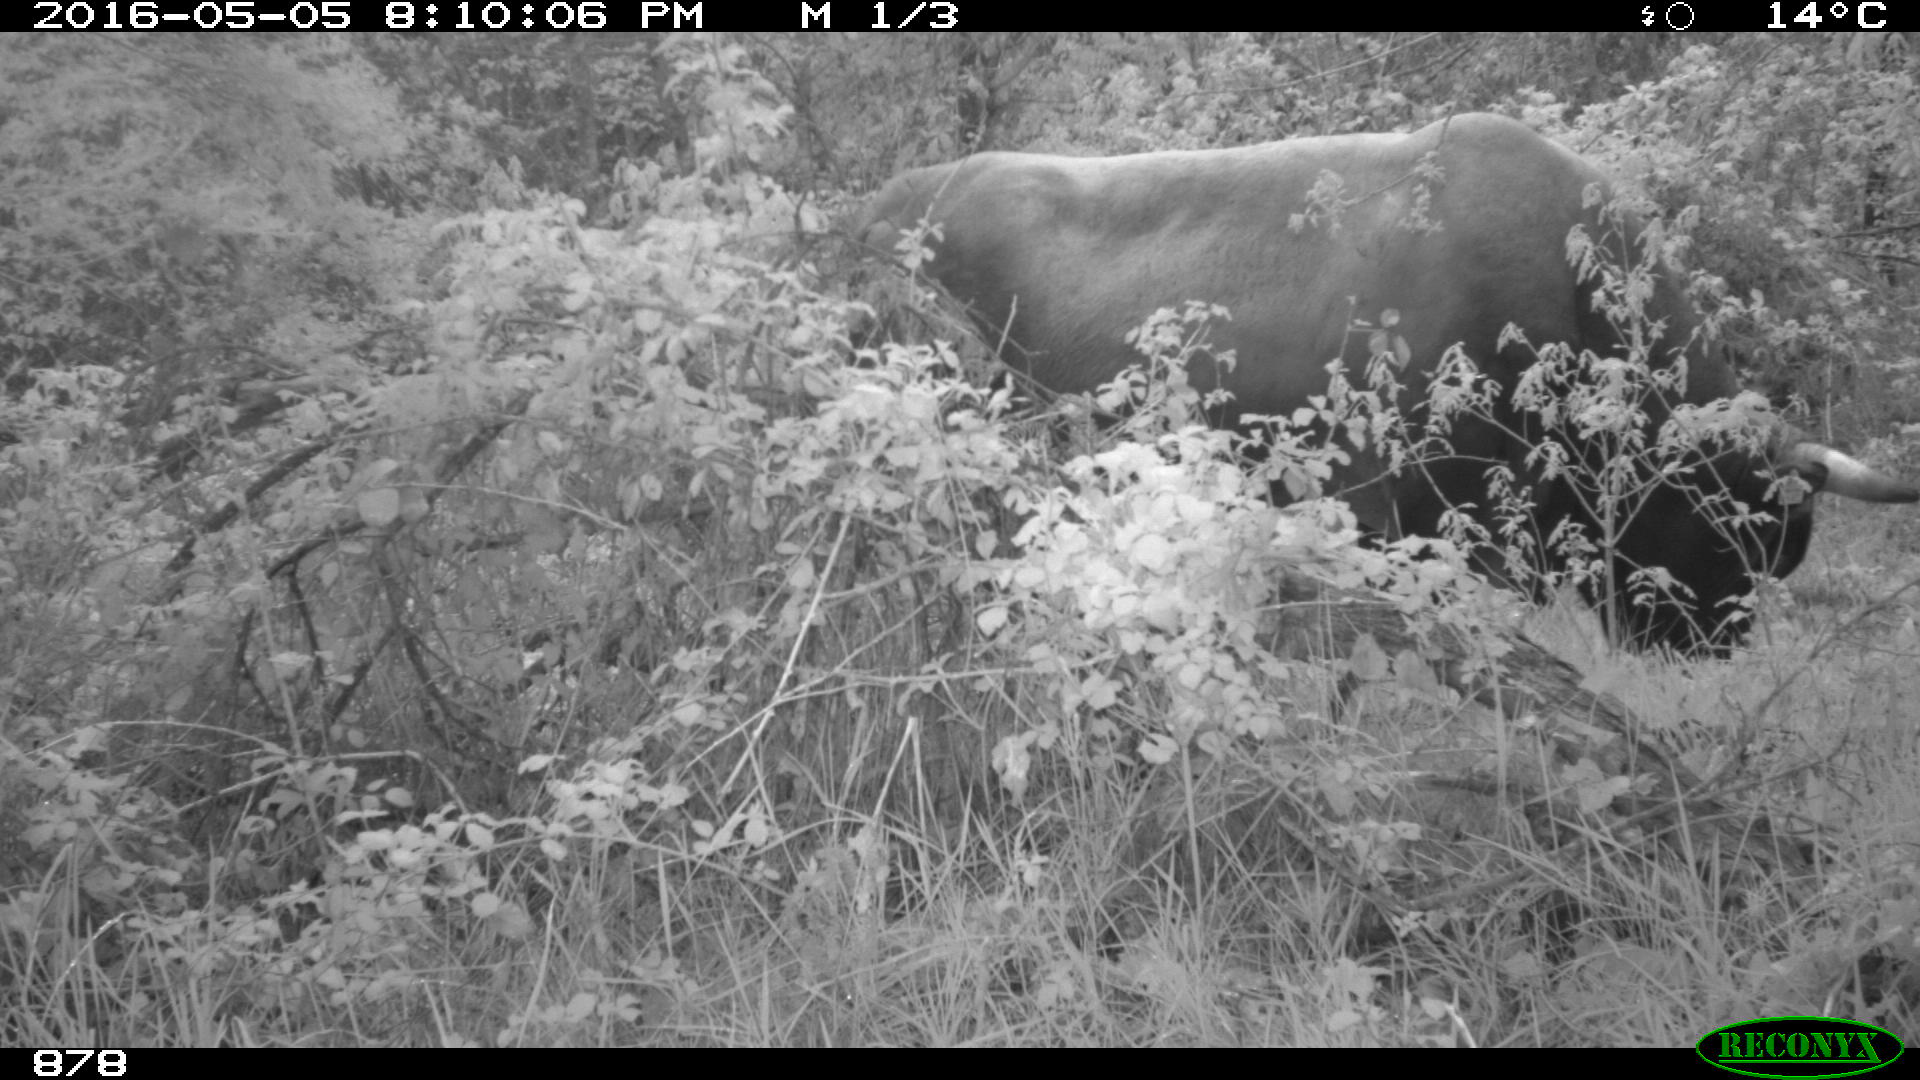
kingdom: Animalia
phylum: Chordata
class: Mammalia
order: Artiodactyla
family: Bovidae
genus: Bos
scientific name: Bos taurus
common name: Domesticated cattle
